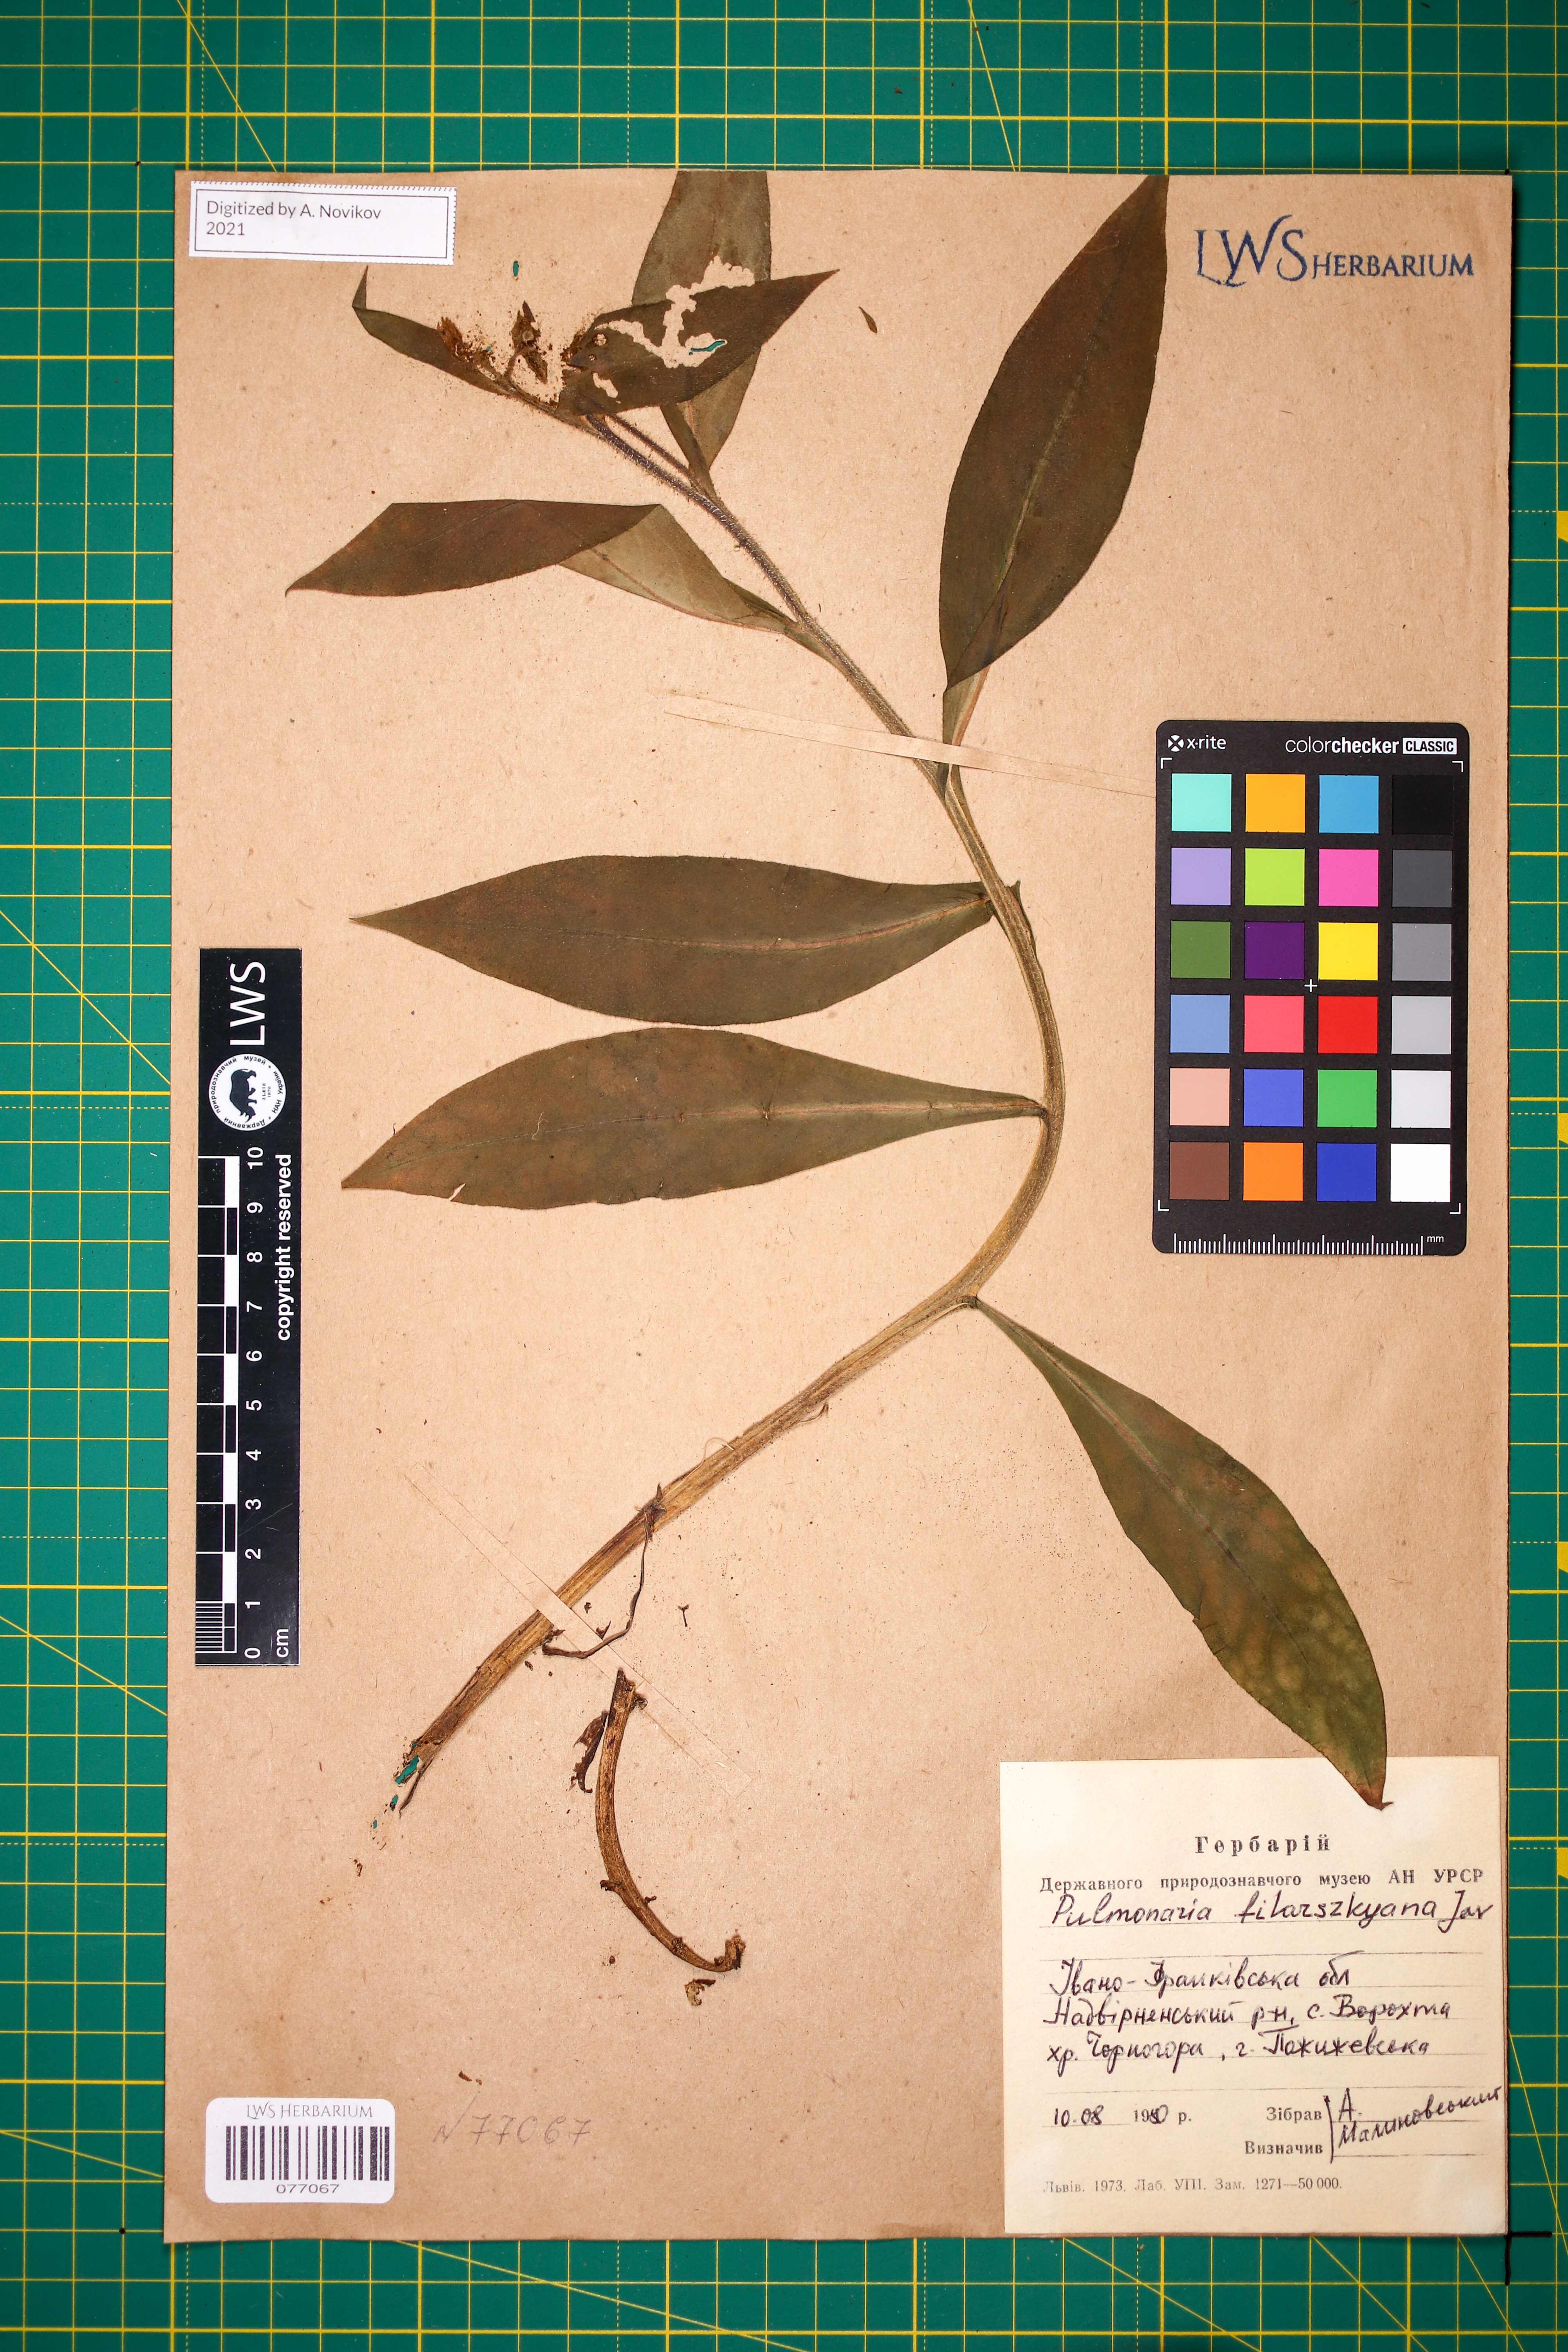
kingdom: Plantae
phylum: Tracheophyta
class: Magnoliopsida
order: Boraginales
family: Boraginaceae
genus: Pulmonaria
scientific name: Pulmonaria filarszkyana
